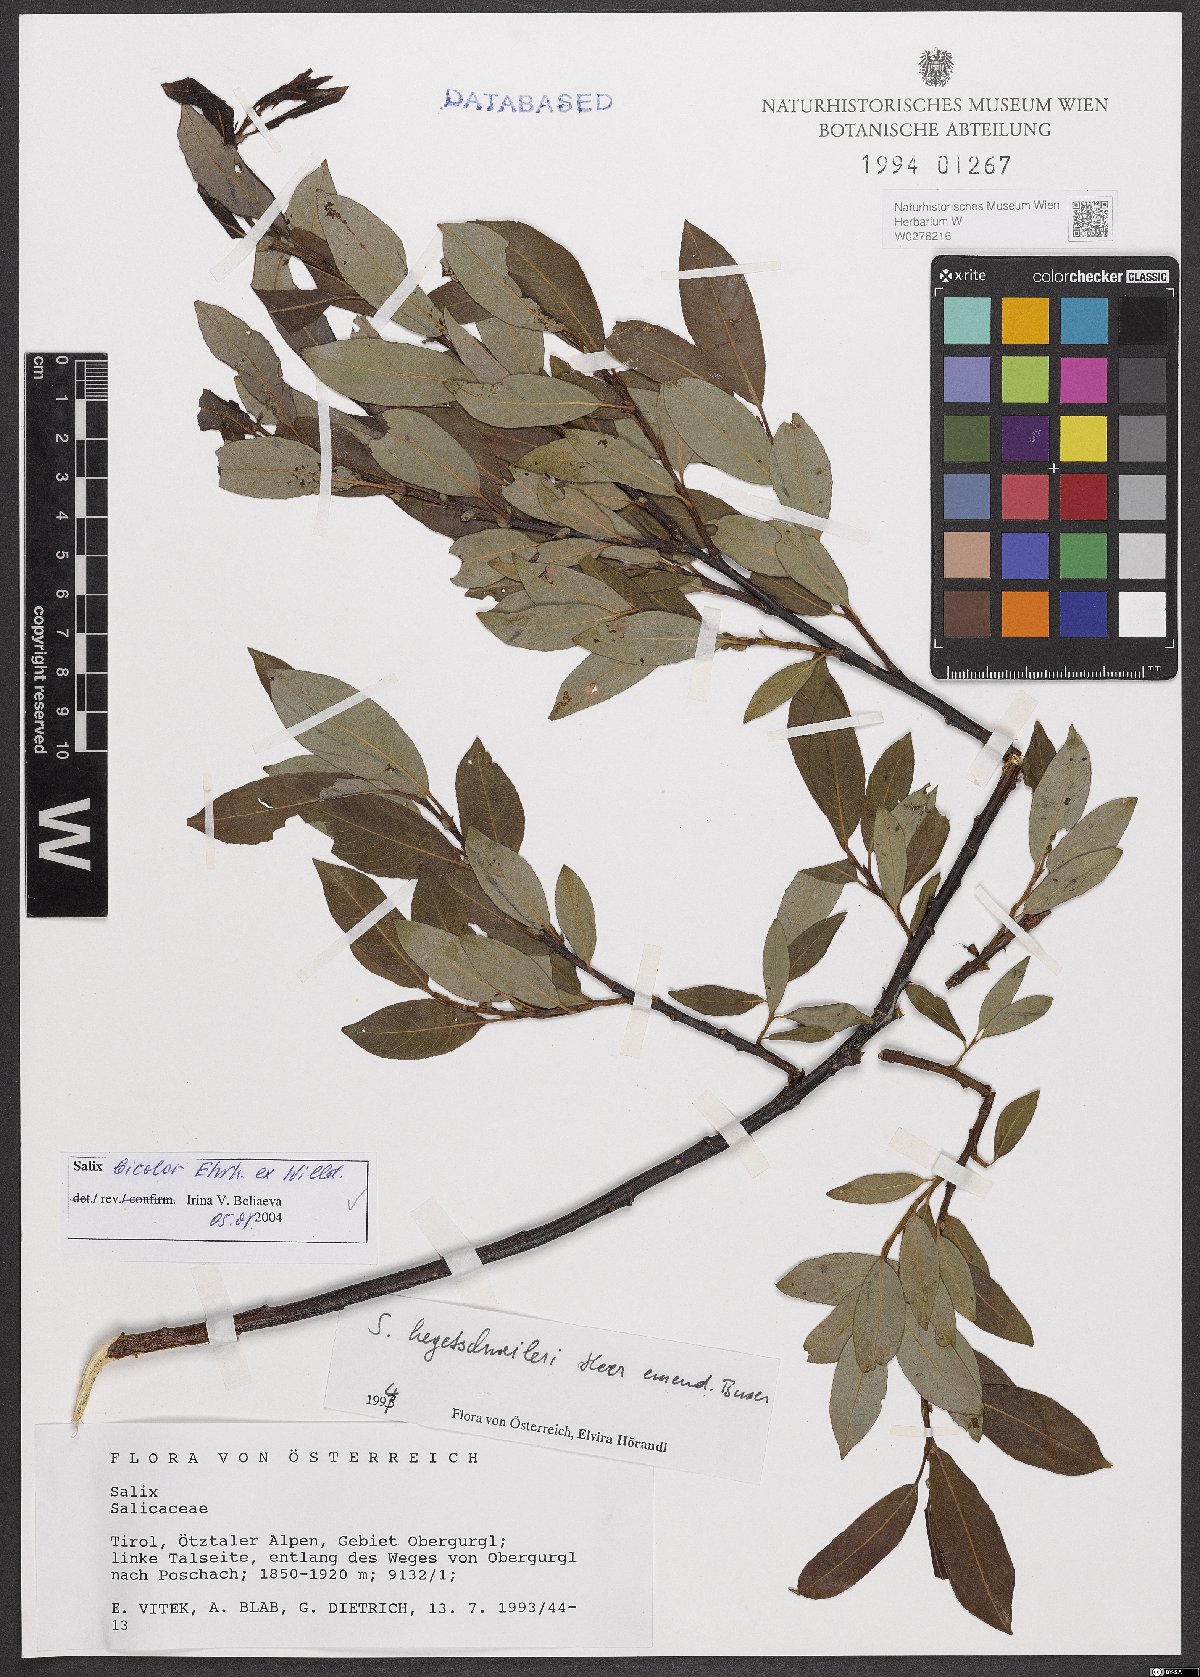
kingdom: Plantae
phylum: Tracheophyta
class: Magnoliopsida
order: Malpighiales
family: Salicaceae
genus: Salix
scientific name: Salix bicolor
